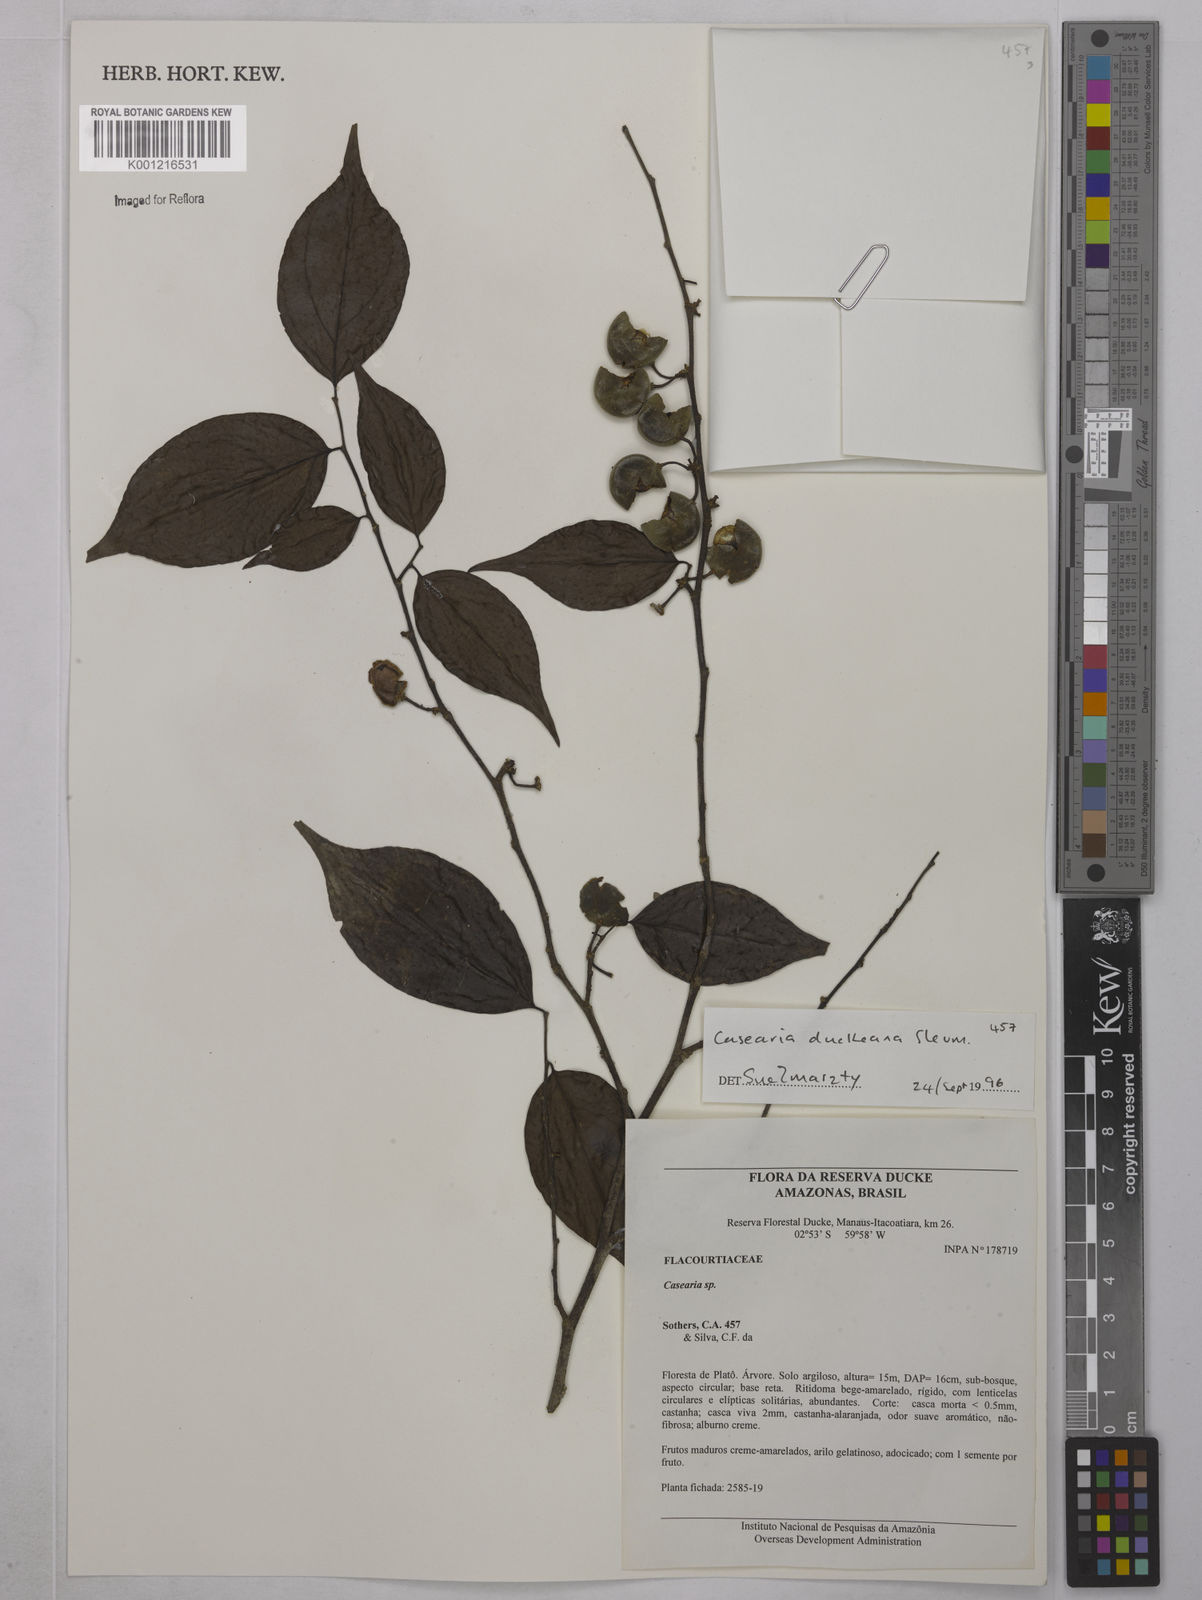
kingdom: Plantae
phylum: Tracheophyta
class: Magnoliopsida
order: Malpighiales
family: Salicaceae
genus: Casearia
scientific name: Casearia duckeana
